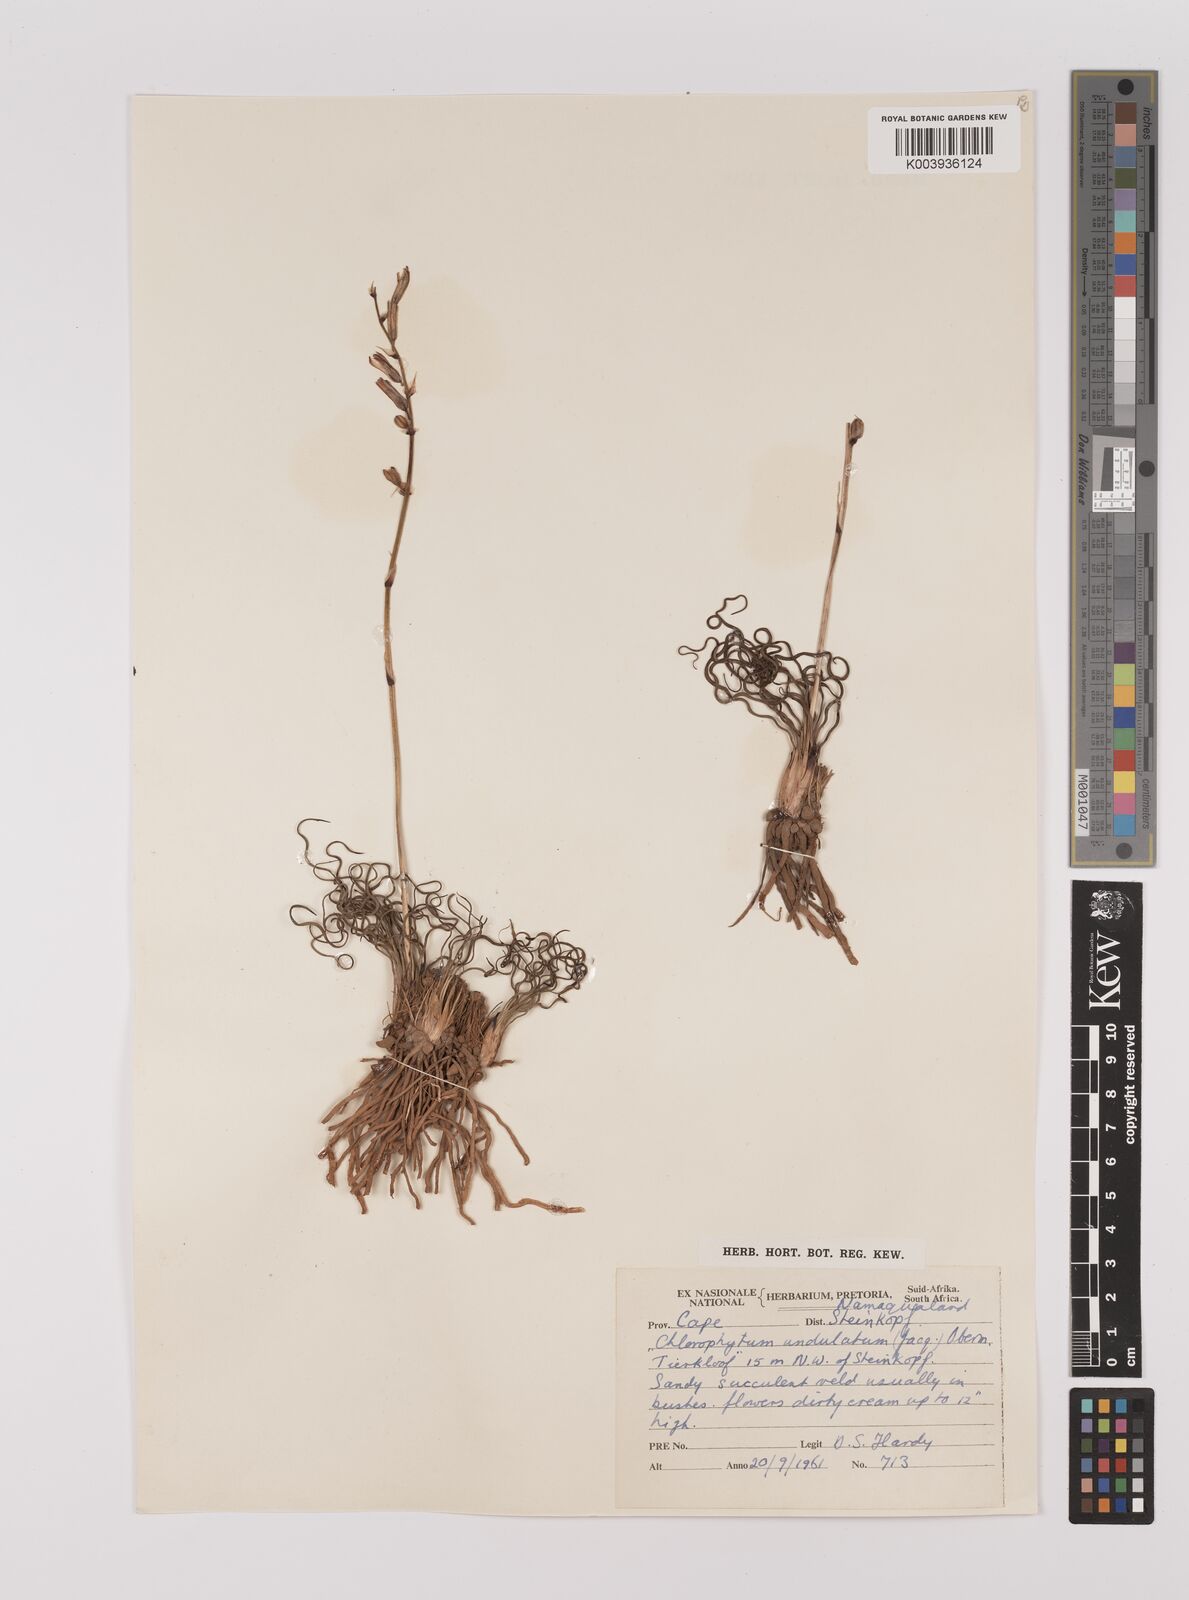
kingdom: Plantae
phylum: Tracheophyta
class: Liliopsida
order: Asparagales
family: Asparagaceae
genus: Chlorophytum
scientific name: Chlorophytum graminifolium
